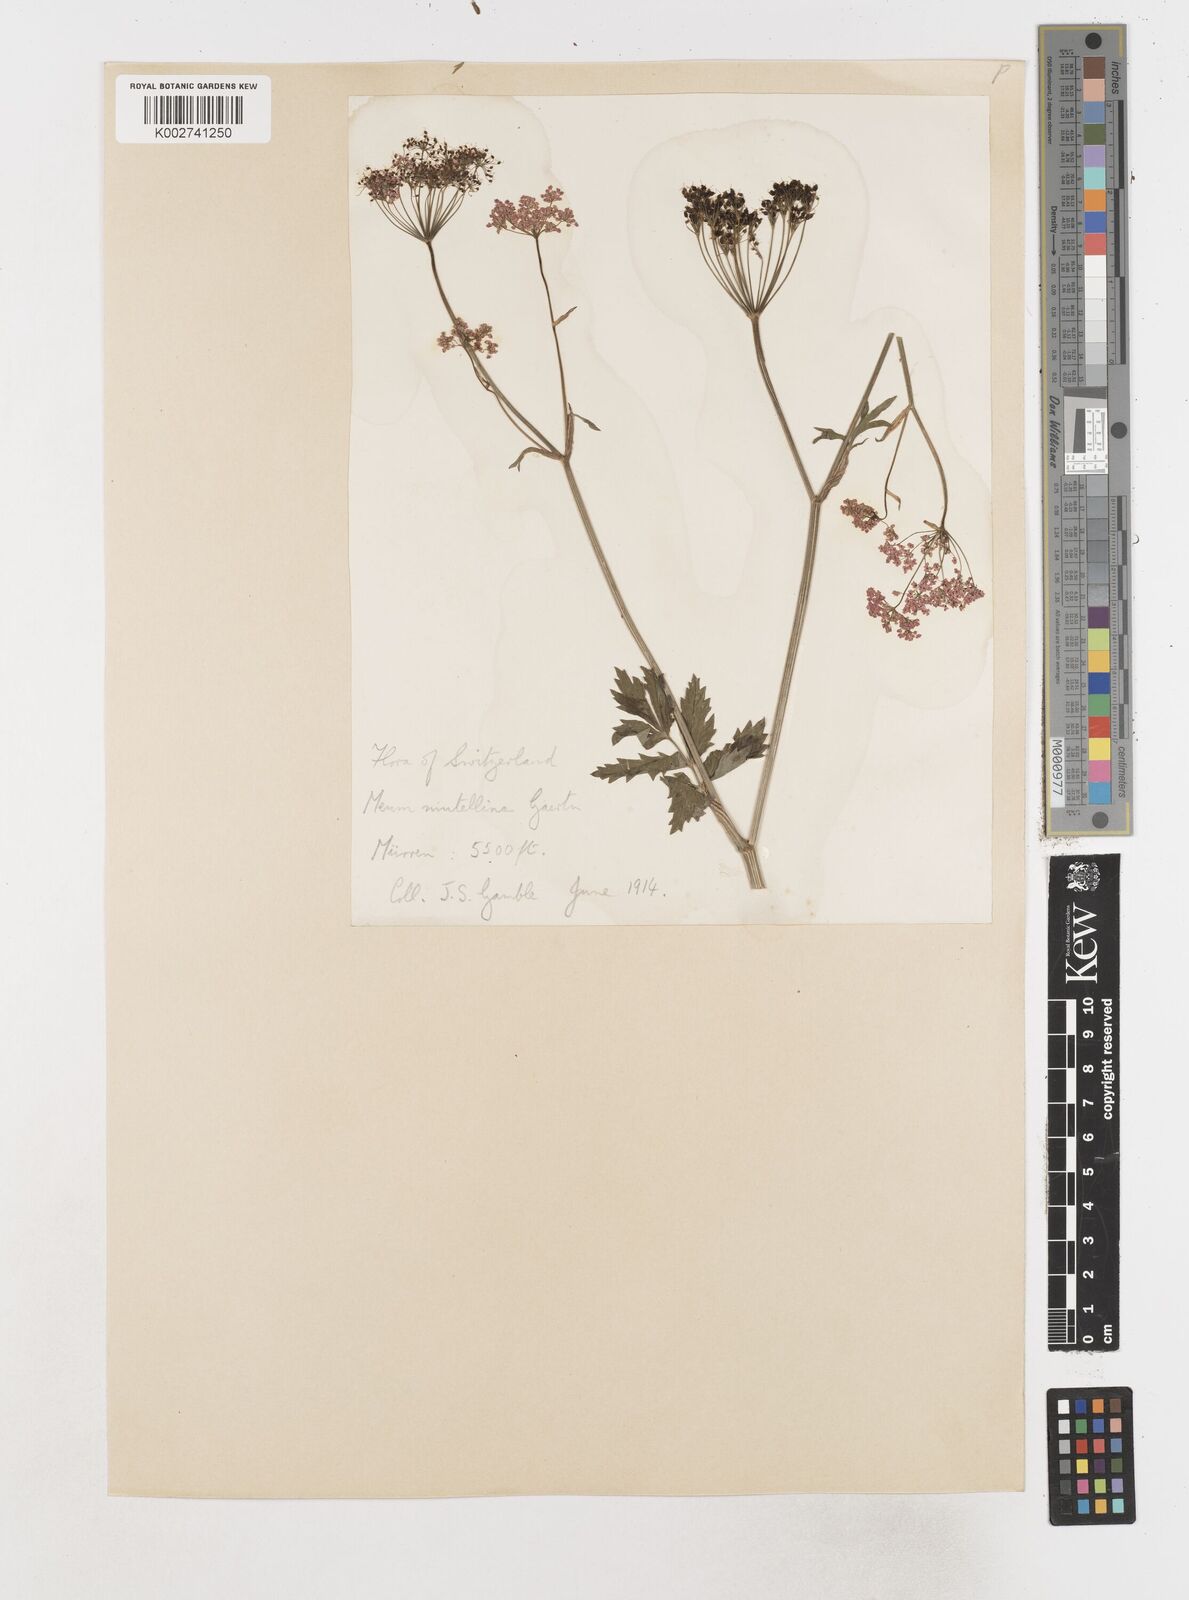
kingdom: Plantae
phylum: Tracheophyta
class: Magnoliopsida
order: Apiales
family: Apiaceae
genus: Mutellina
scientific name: Mutellina adonidifolia
